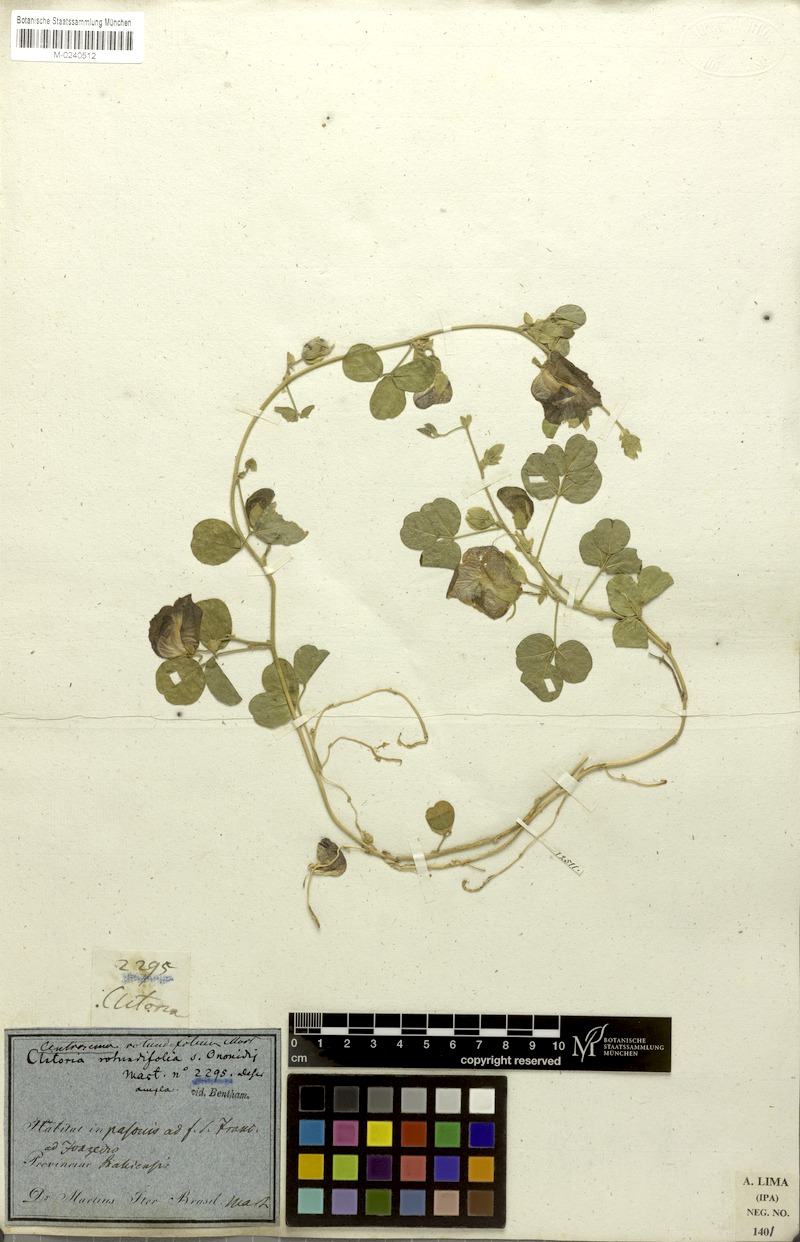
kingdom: Plantae
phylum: Tracheophyta
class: Magnoliopsida
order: Fabales
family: Fabaceae
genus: Centrosema
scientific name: Centrosema rotundifolium
